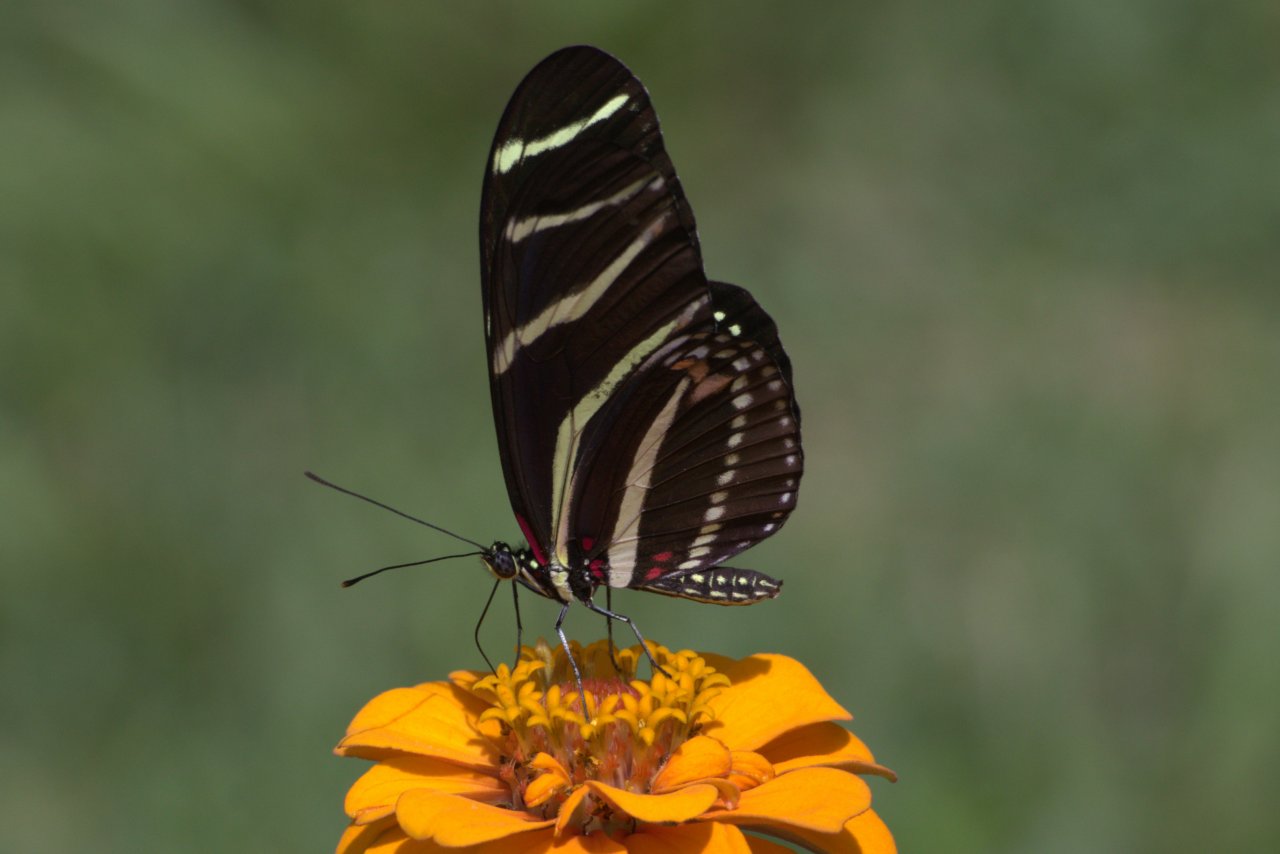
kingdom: Animalia
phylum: Arthropoda
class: Insecta
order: Lepidoptera
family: Nymphalidae
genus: Heliconius
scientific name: Heliconius charithonia
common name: Zebra Longwing
